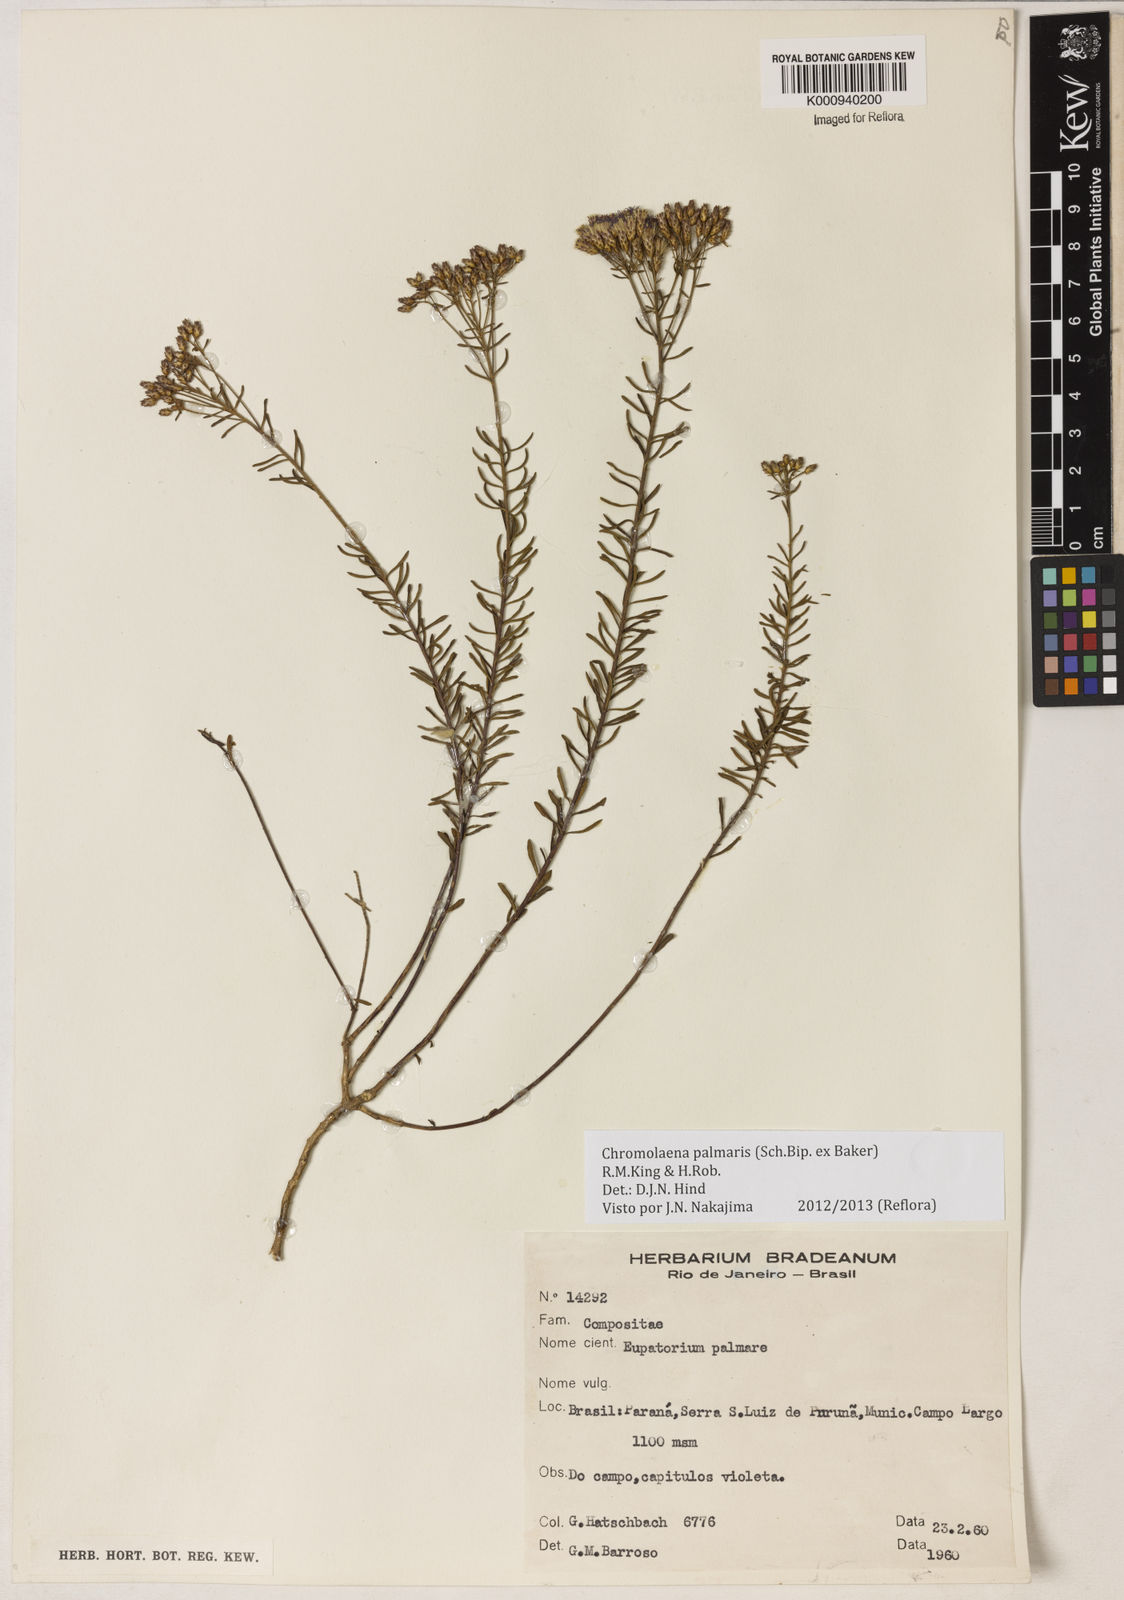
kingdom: Plantae
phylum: Tracheophyta
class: Magnoliopsida
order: Asterales
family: Asteraceae
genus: Chromolaena
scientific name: Chromolaena palmaris
